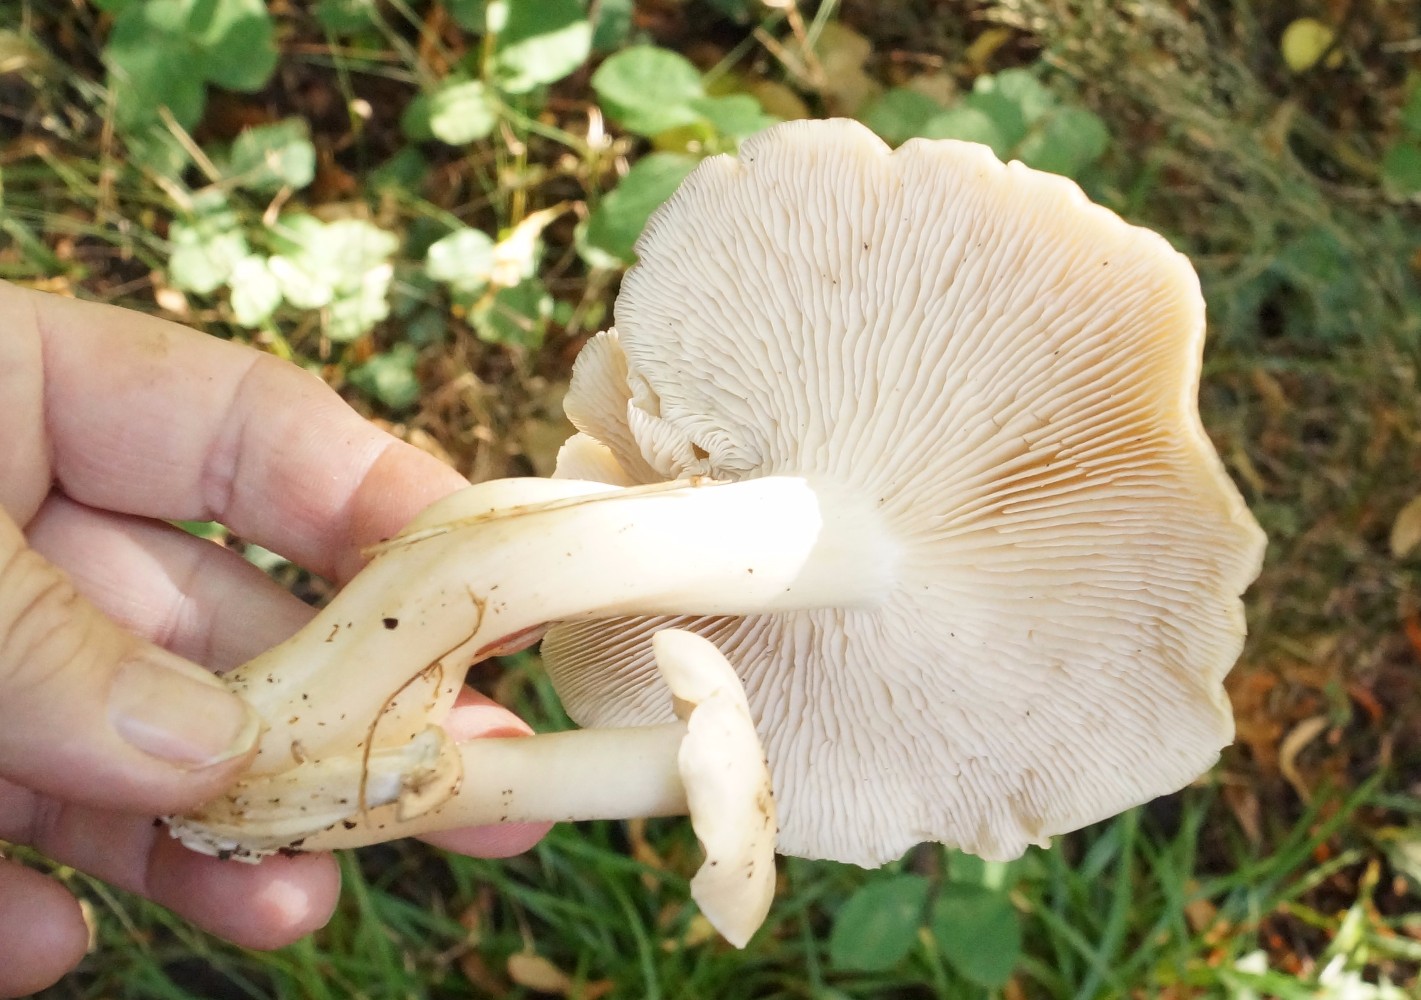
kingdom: Fungi
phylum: Basidiomycota
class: Agaricomycetes
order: Agaricales
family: Lyophyllaceae
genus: Lyophyllum
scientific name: Lyophyllum
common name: gråblad
